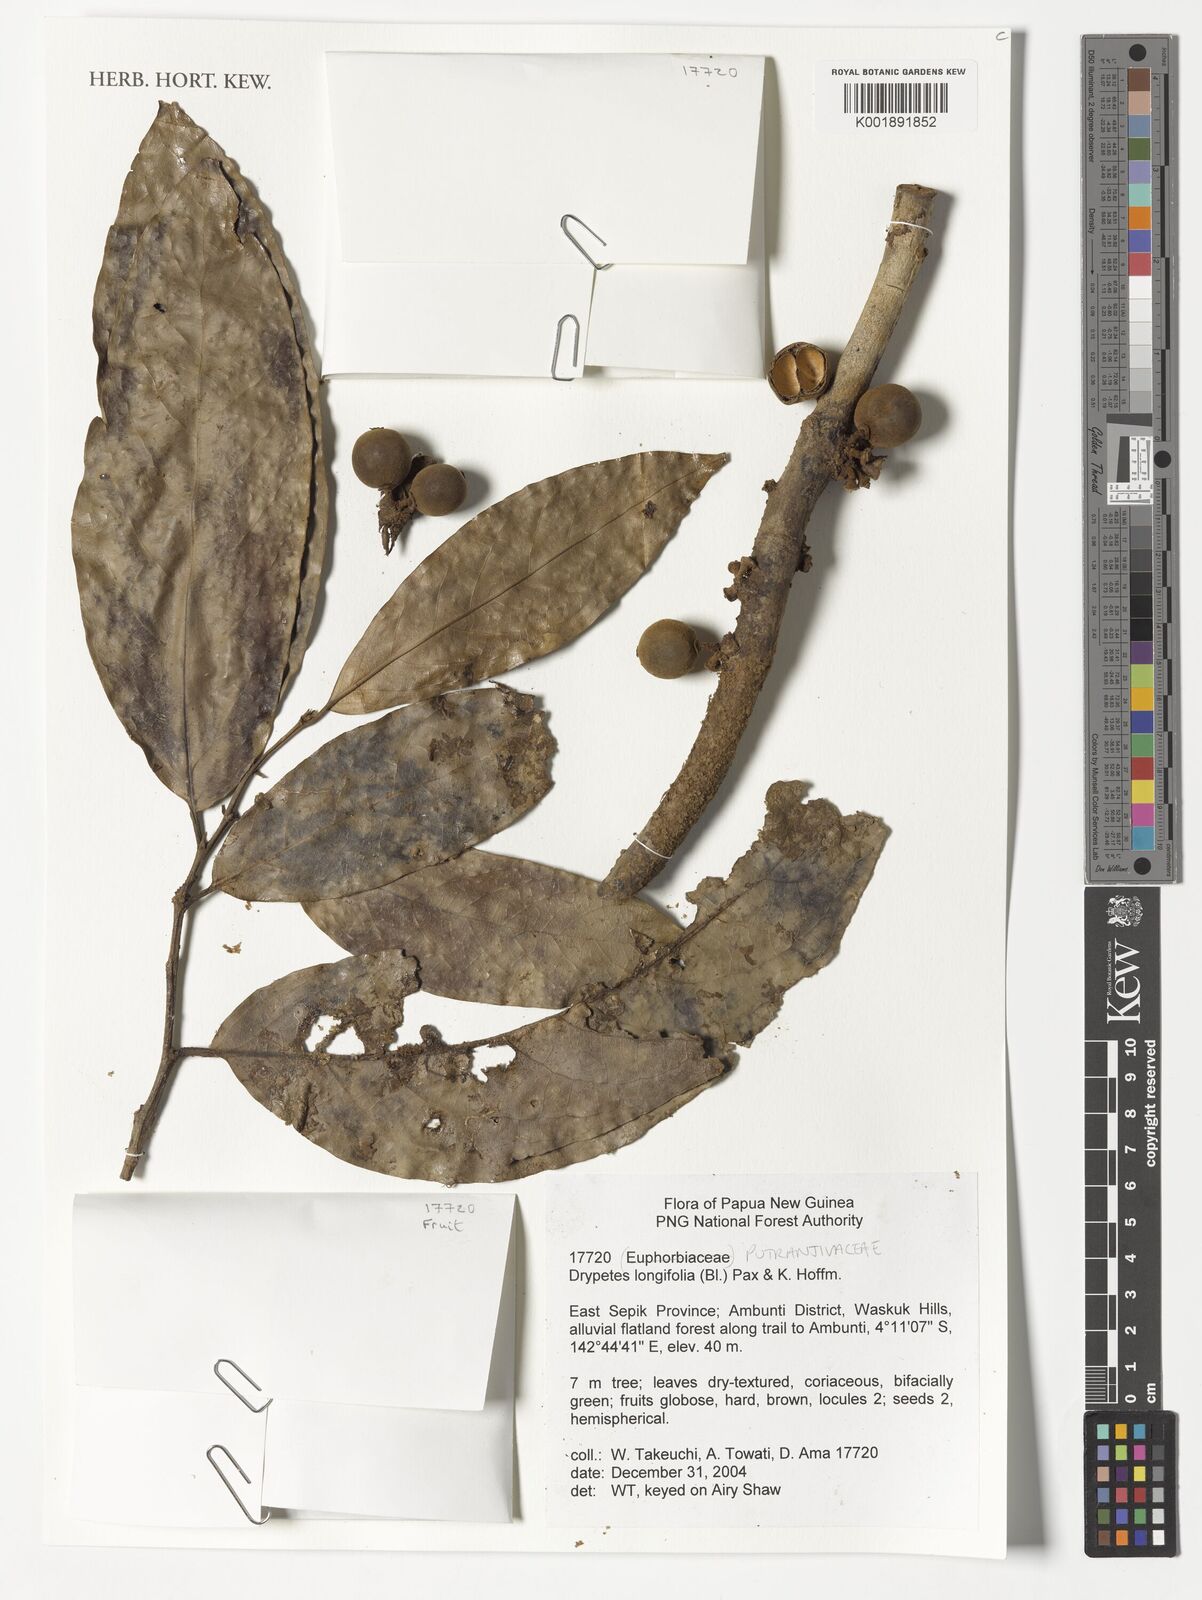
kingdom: Plantae
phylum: Tracheophyta
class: Magnoliopsida
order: Malpighiales
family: Putranjivaceae
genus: Drypetes
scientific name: Drypetes longifolia
